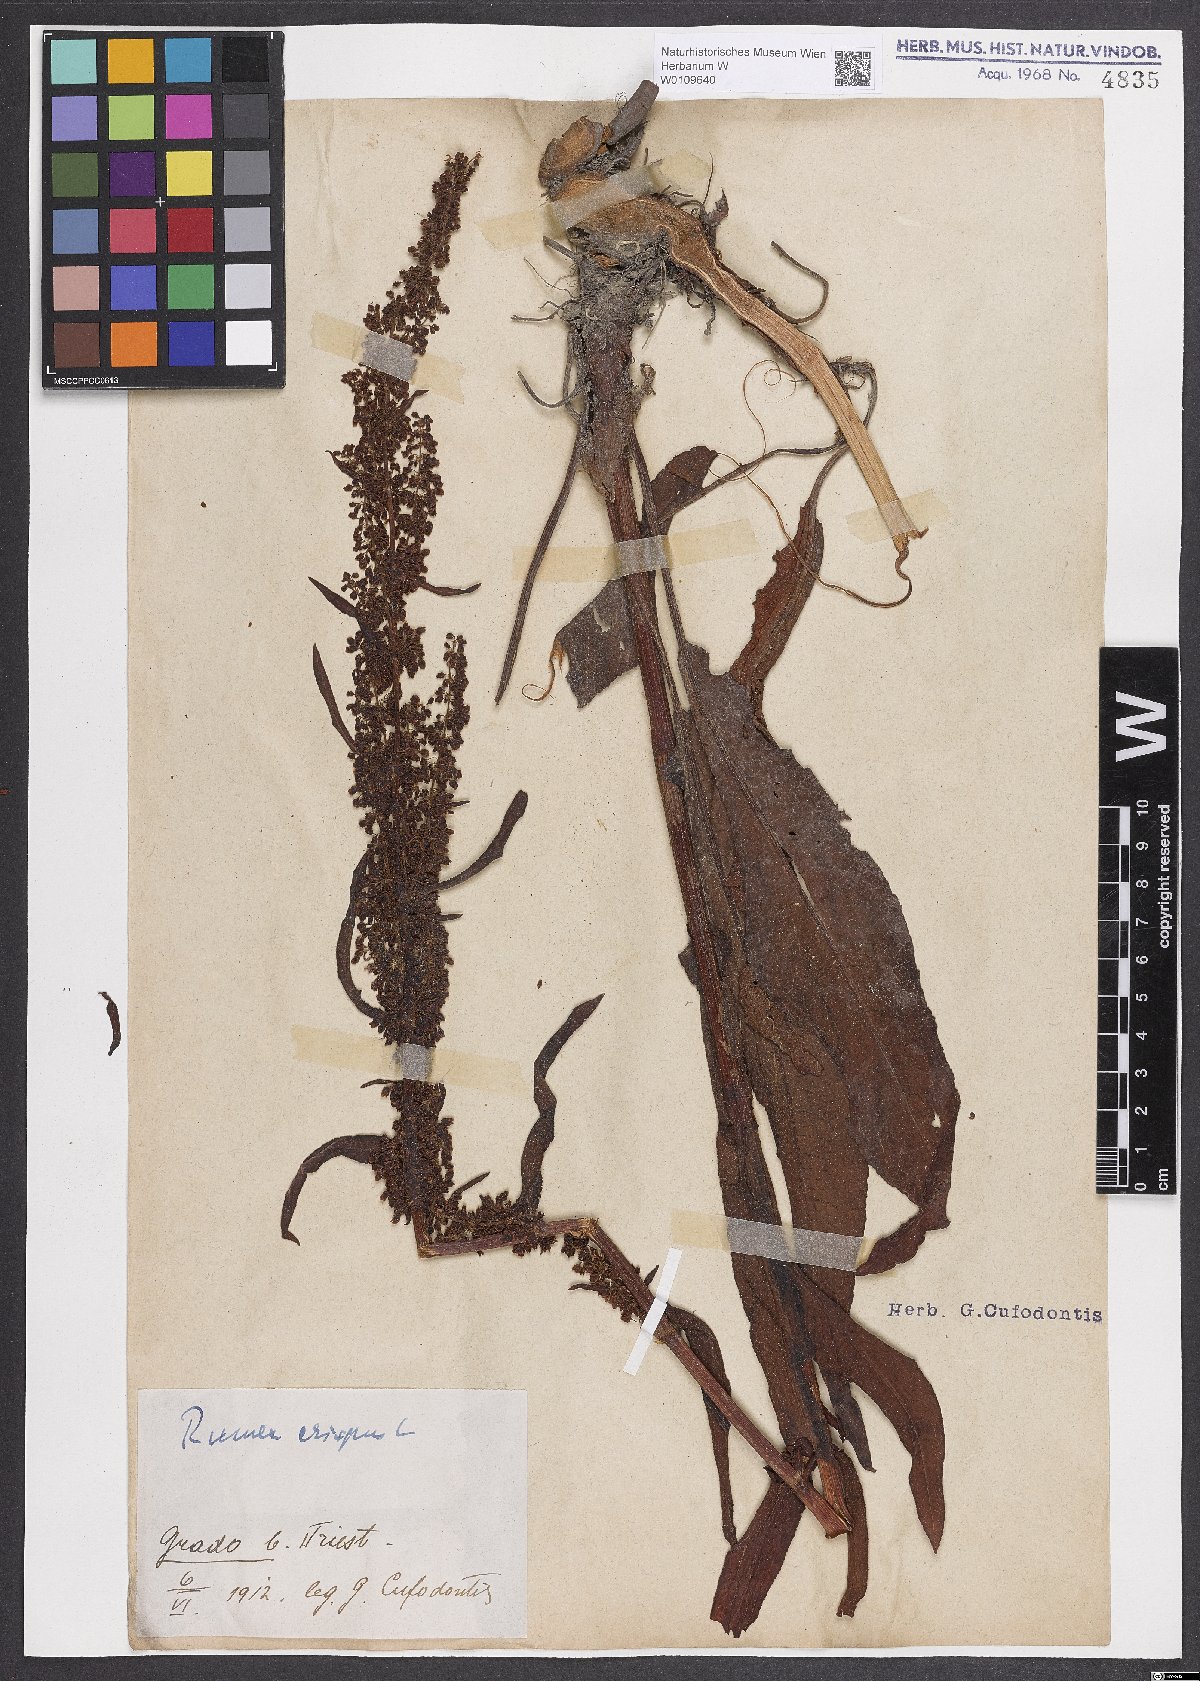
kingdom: Plantae
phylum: Tracheophyta
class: Magnoliopsida
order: Caryophyllales
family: Polygonaceae
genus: Rumex
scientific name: Rumex crispus
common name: Curled dock
